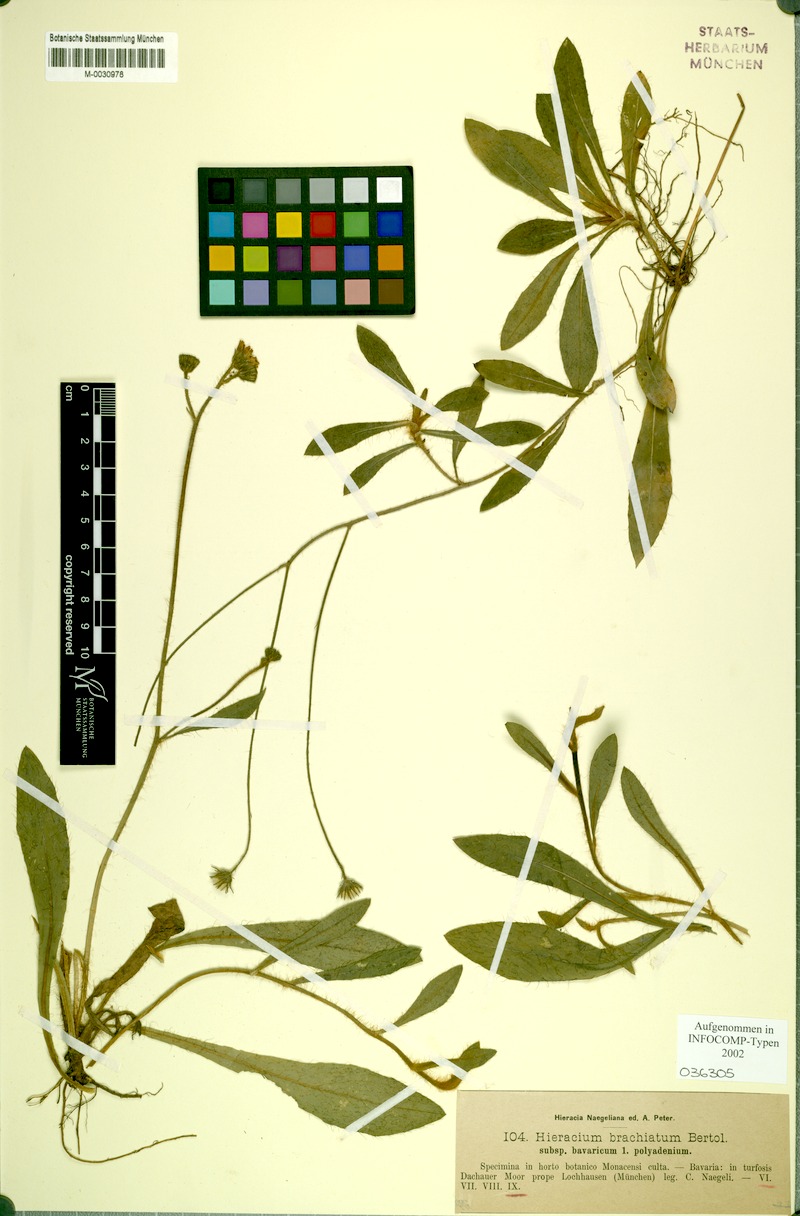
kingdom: Plantae
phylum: Tracheophyta
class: Magnoliopsida
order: Asterales
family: Asteraceae
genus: Pilosella
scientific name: Pilosella acutifolia
